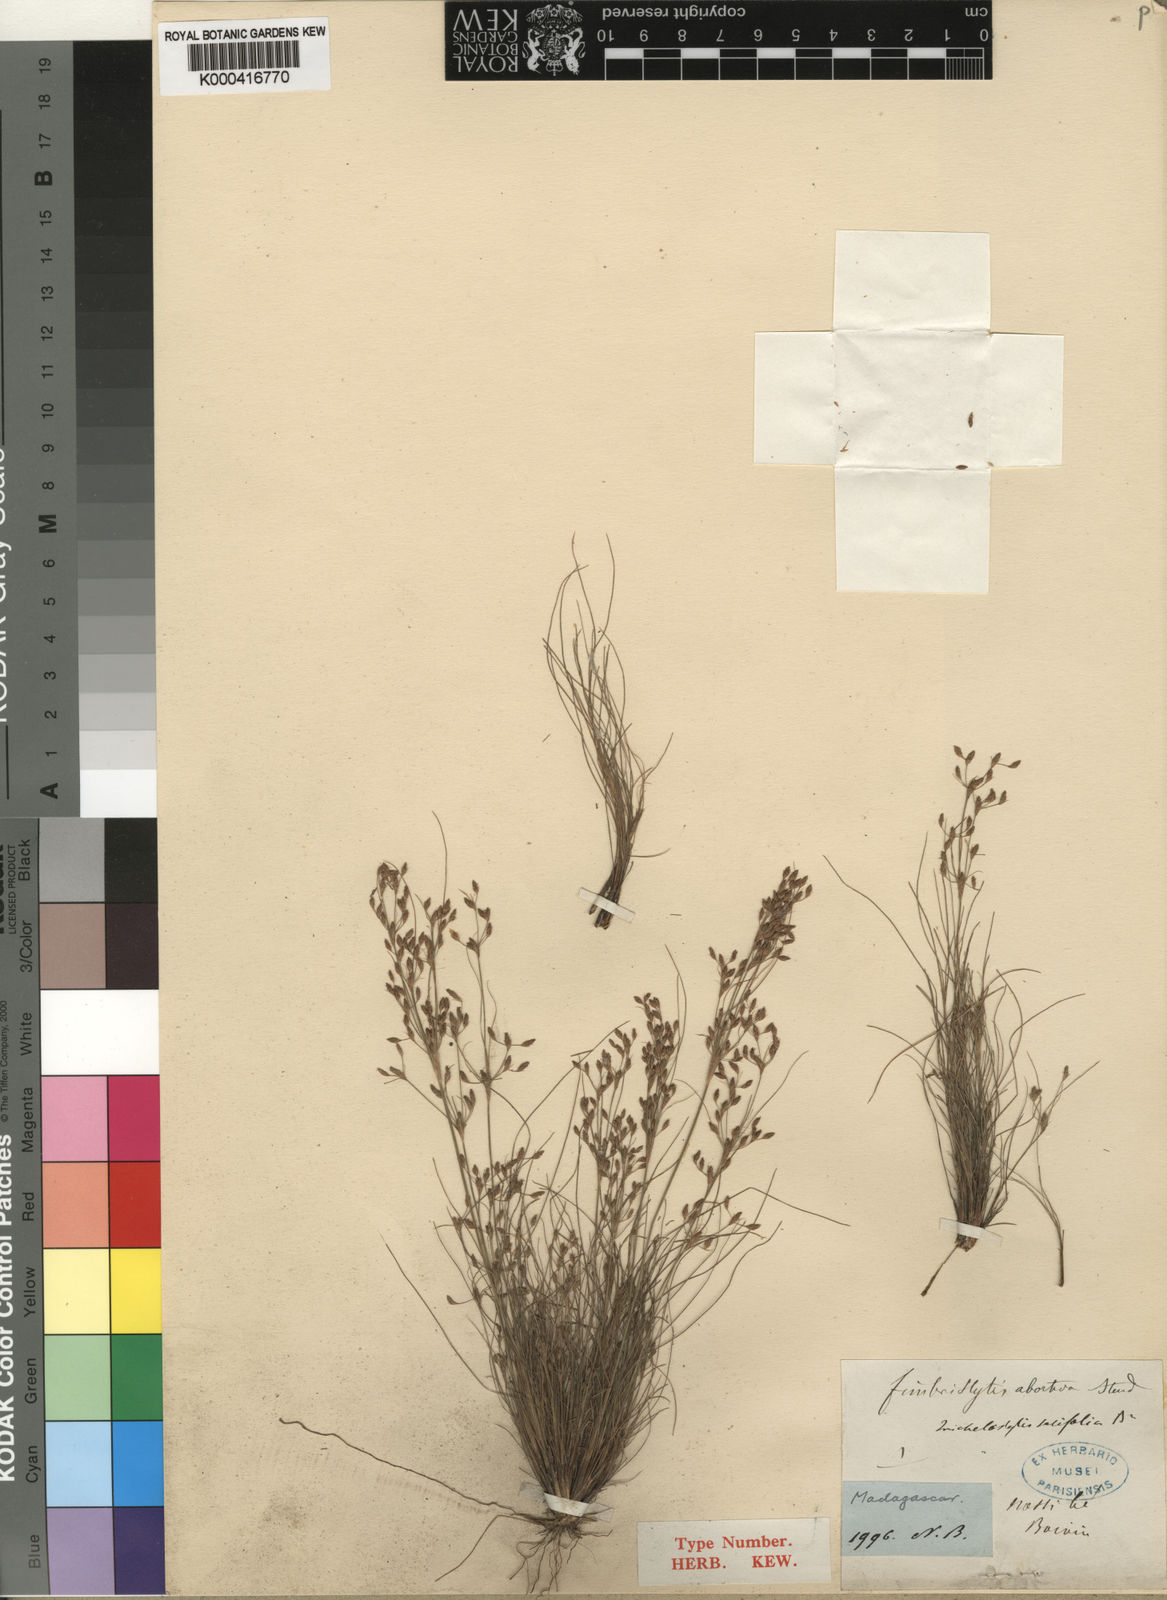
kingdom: Plantae
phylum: Tracheophyta
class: Liliopsida
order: Poales
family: Cyperaceae
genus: Bulbostylis
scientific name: Bulbostylis abortiva
